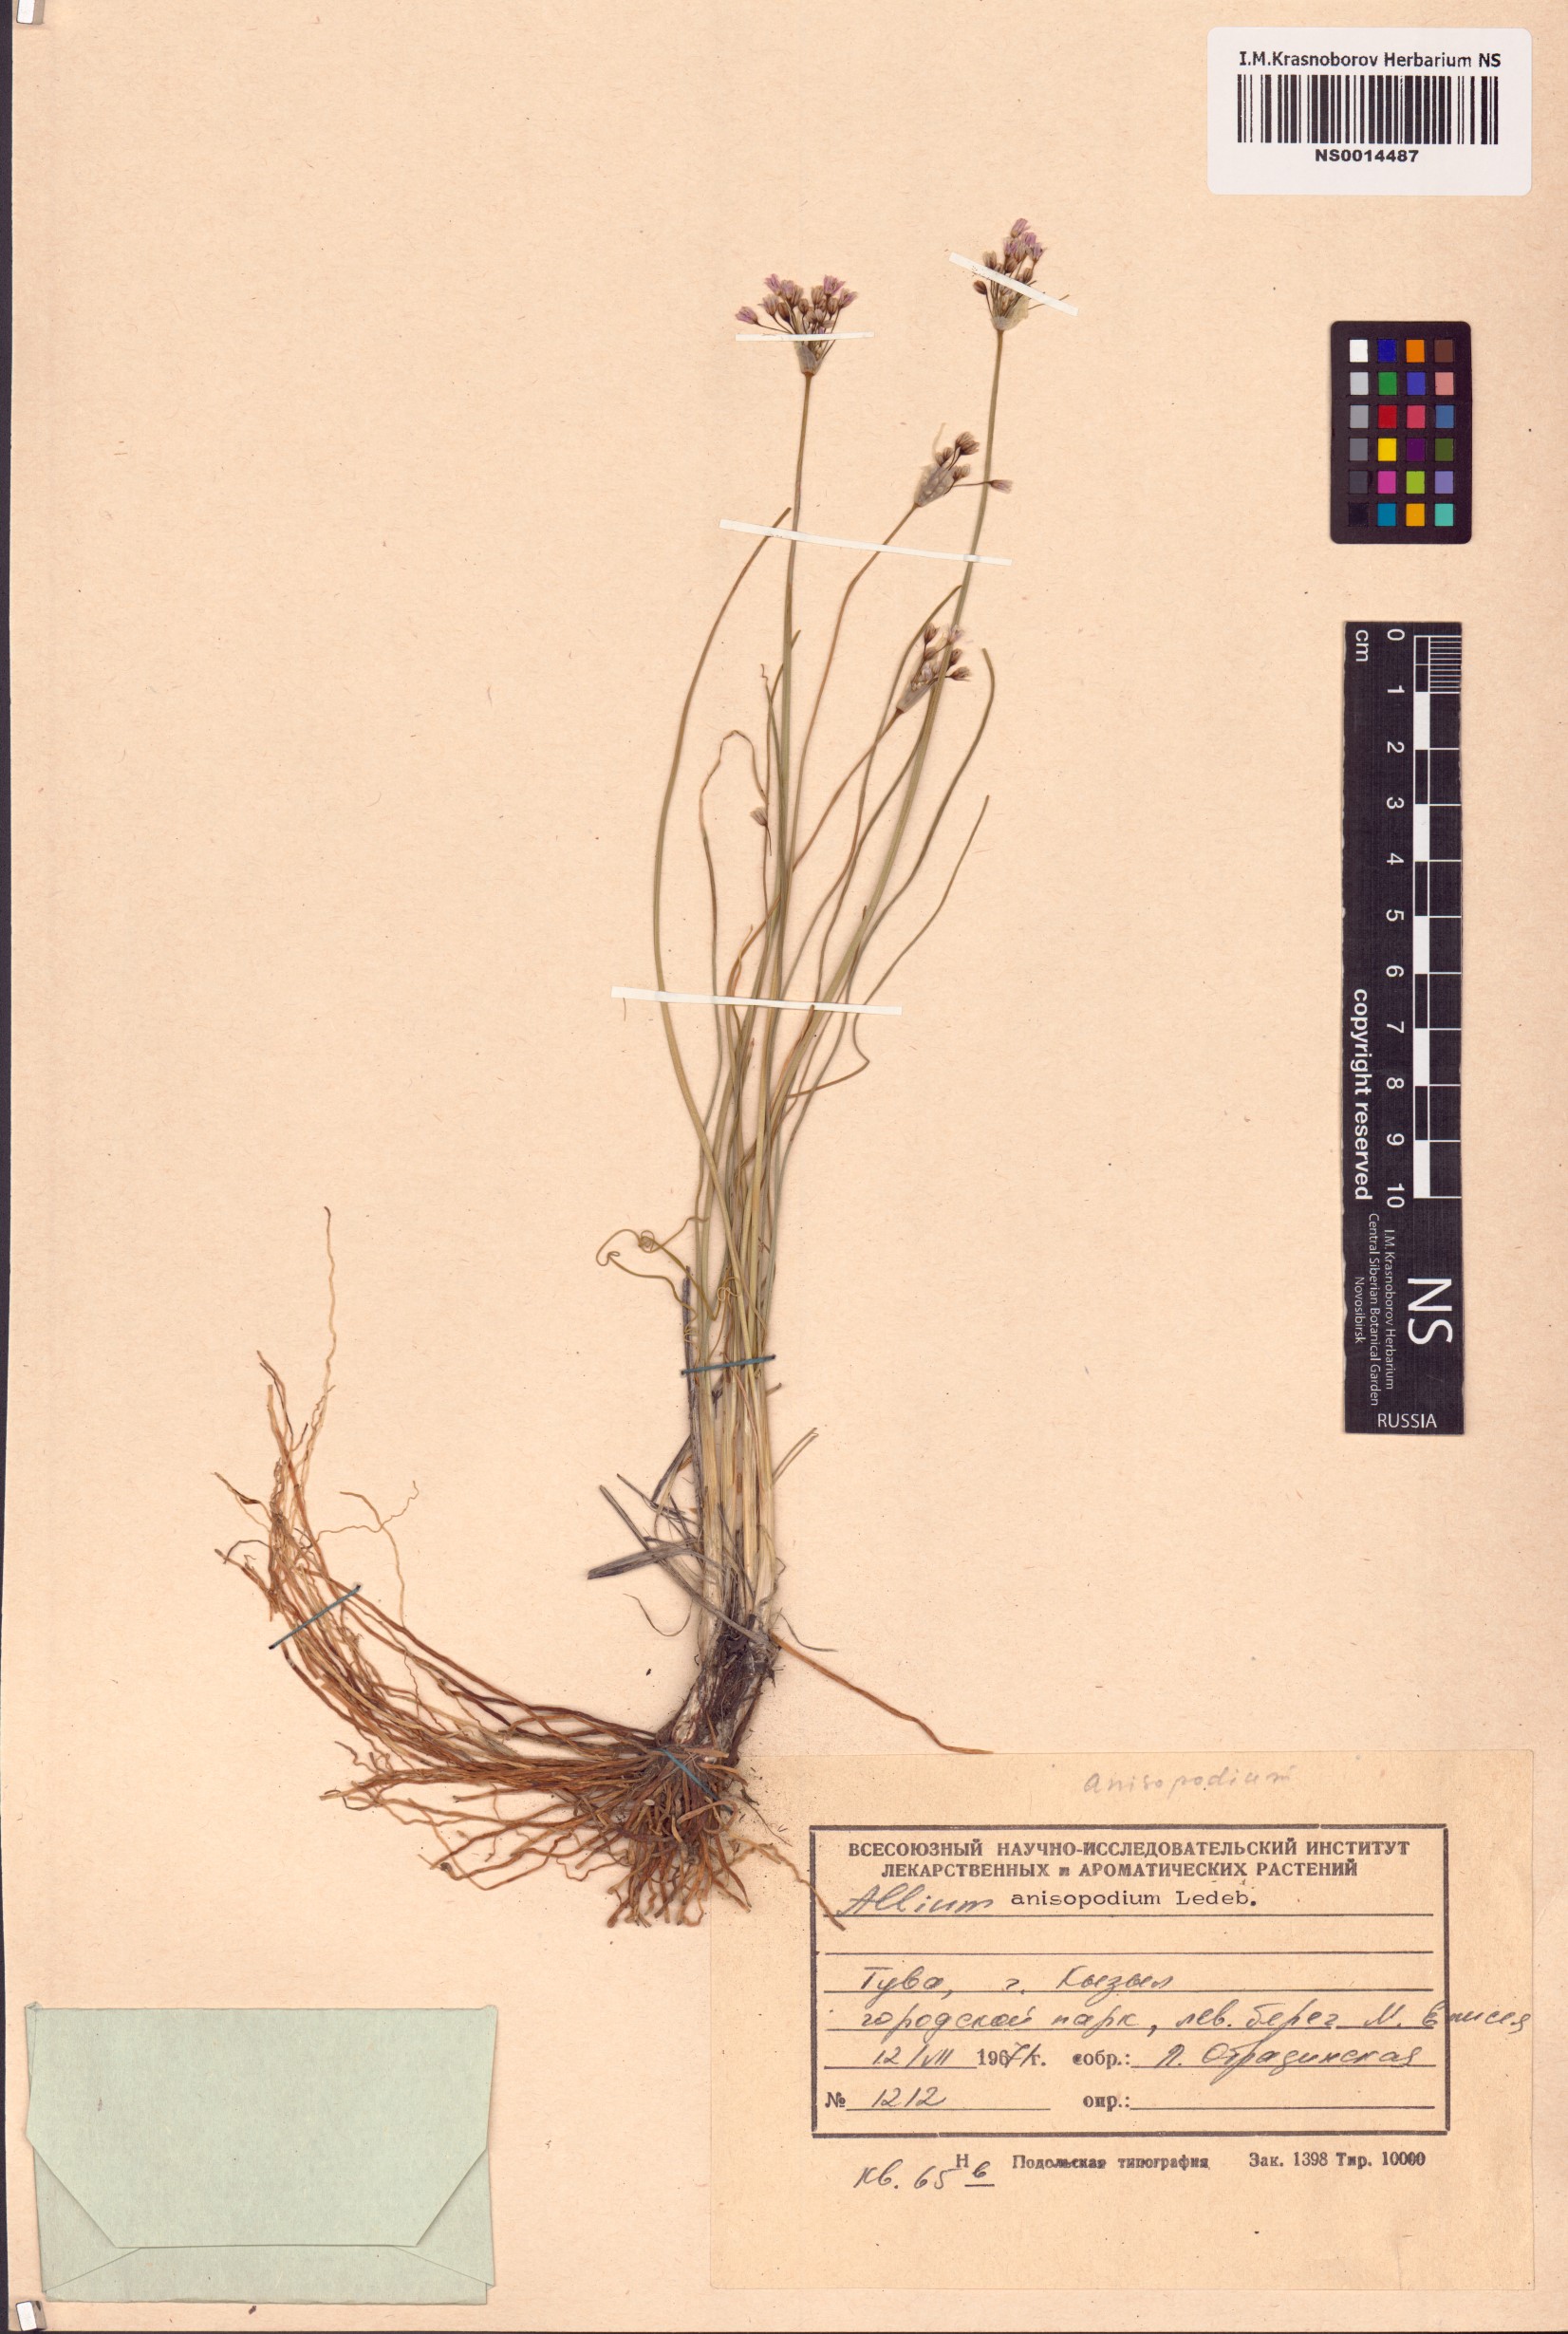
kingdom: Plantae
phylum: Tracheophyta
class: Liliopsida
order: Asparagales
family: Amaryllidaceae
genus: Allium
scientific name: Allium anisopodium
